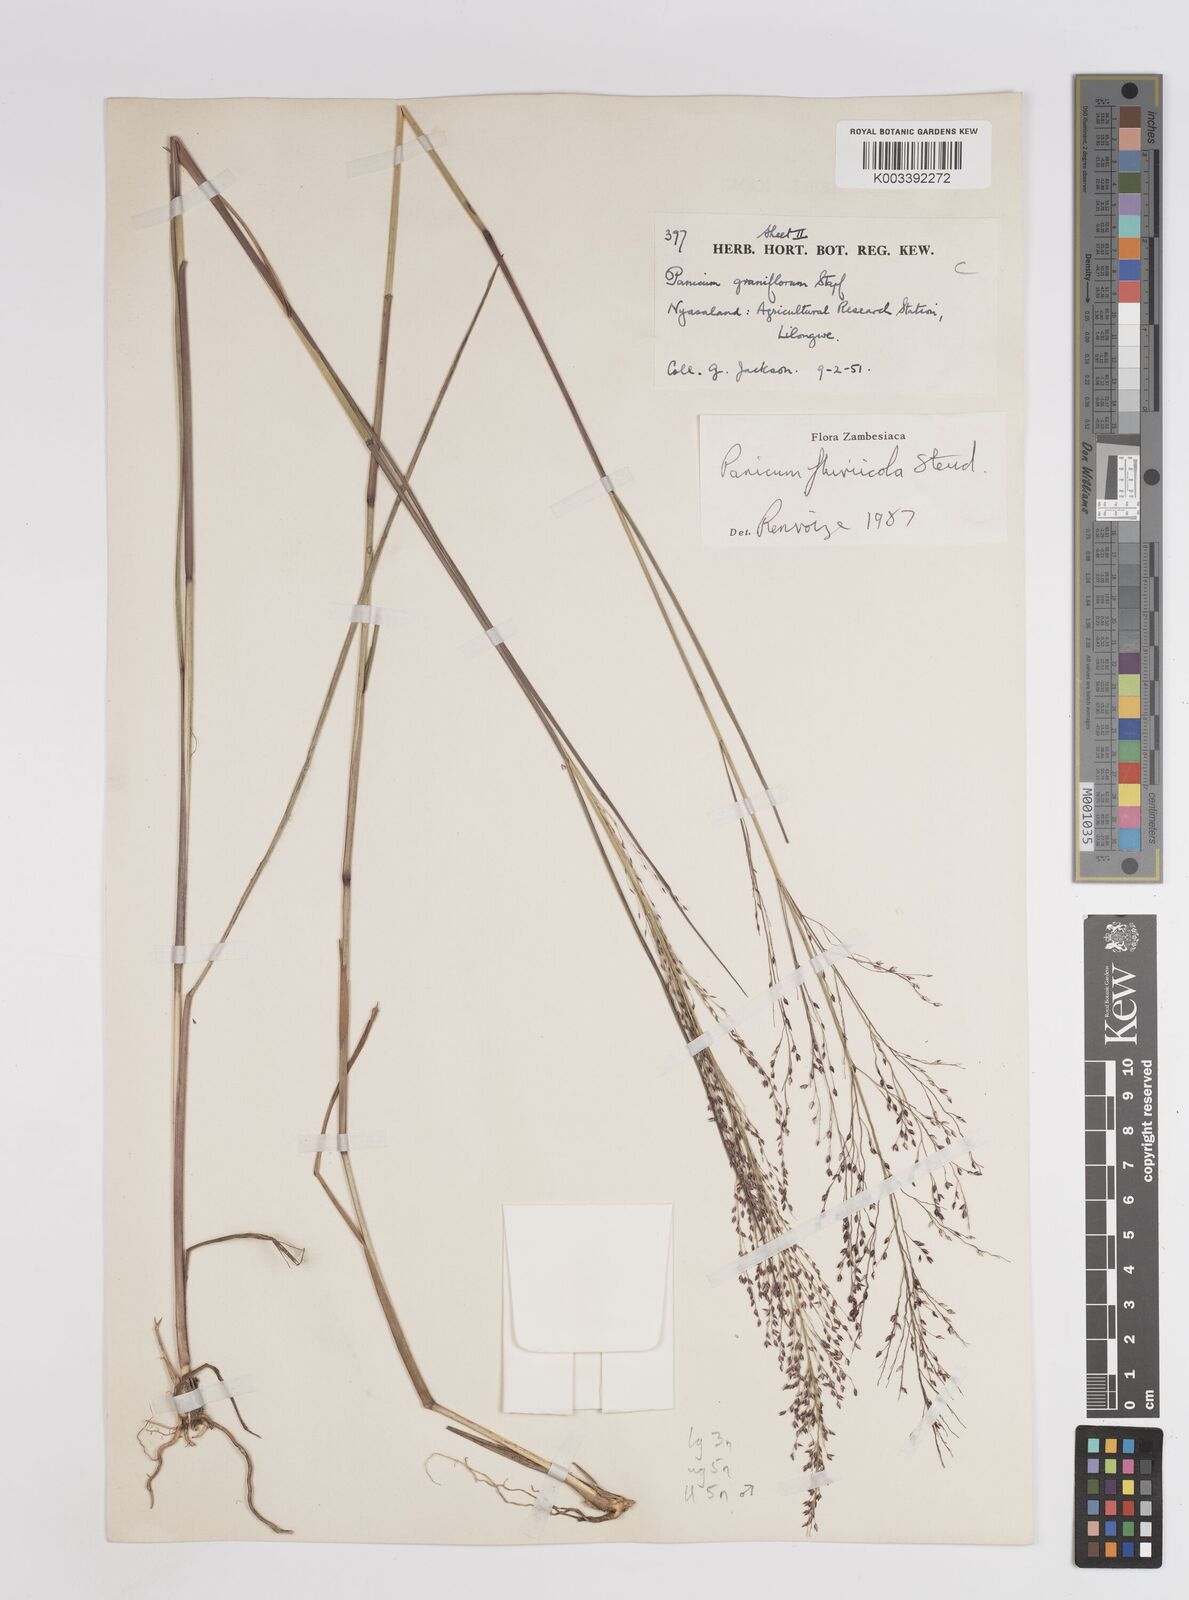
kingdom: Plantae
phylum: Tracheophyta
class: Liliopsida
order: Poales
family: Poaceae
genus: Panicum
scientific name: Panicum fluviicola
